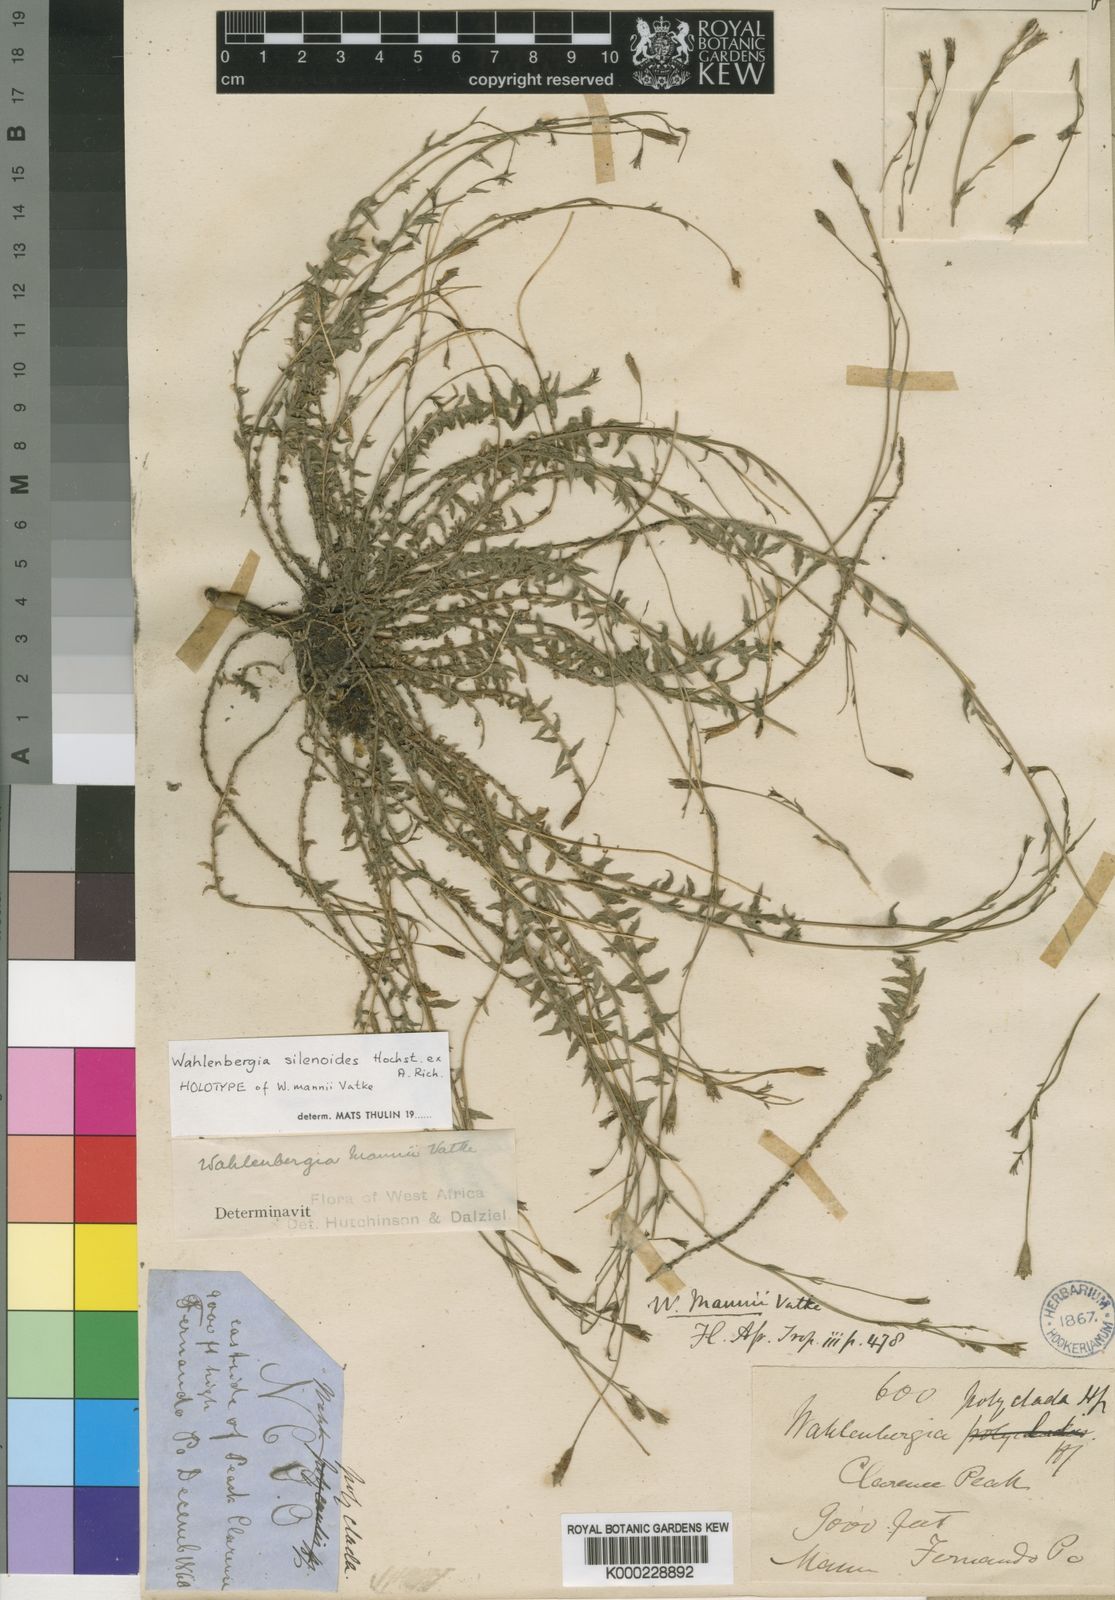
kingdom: Plantae
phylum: Tracheophyta
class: Magnoliopsida
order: Asterales
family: Campanulaceae
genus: Wahlenbergia
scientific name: Wahlenbergia silenoides
